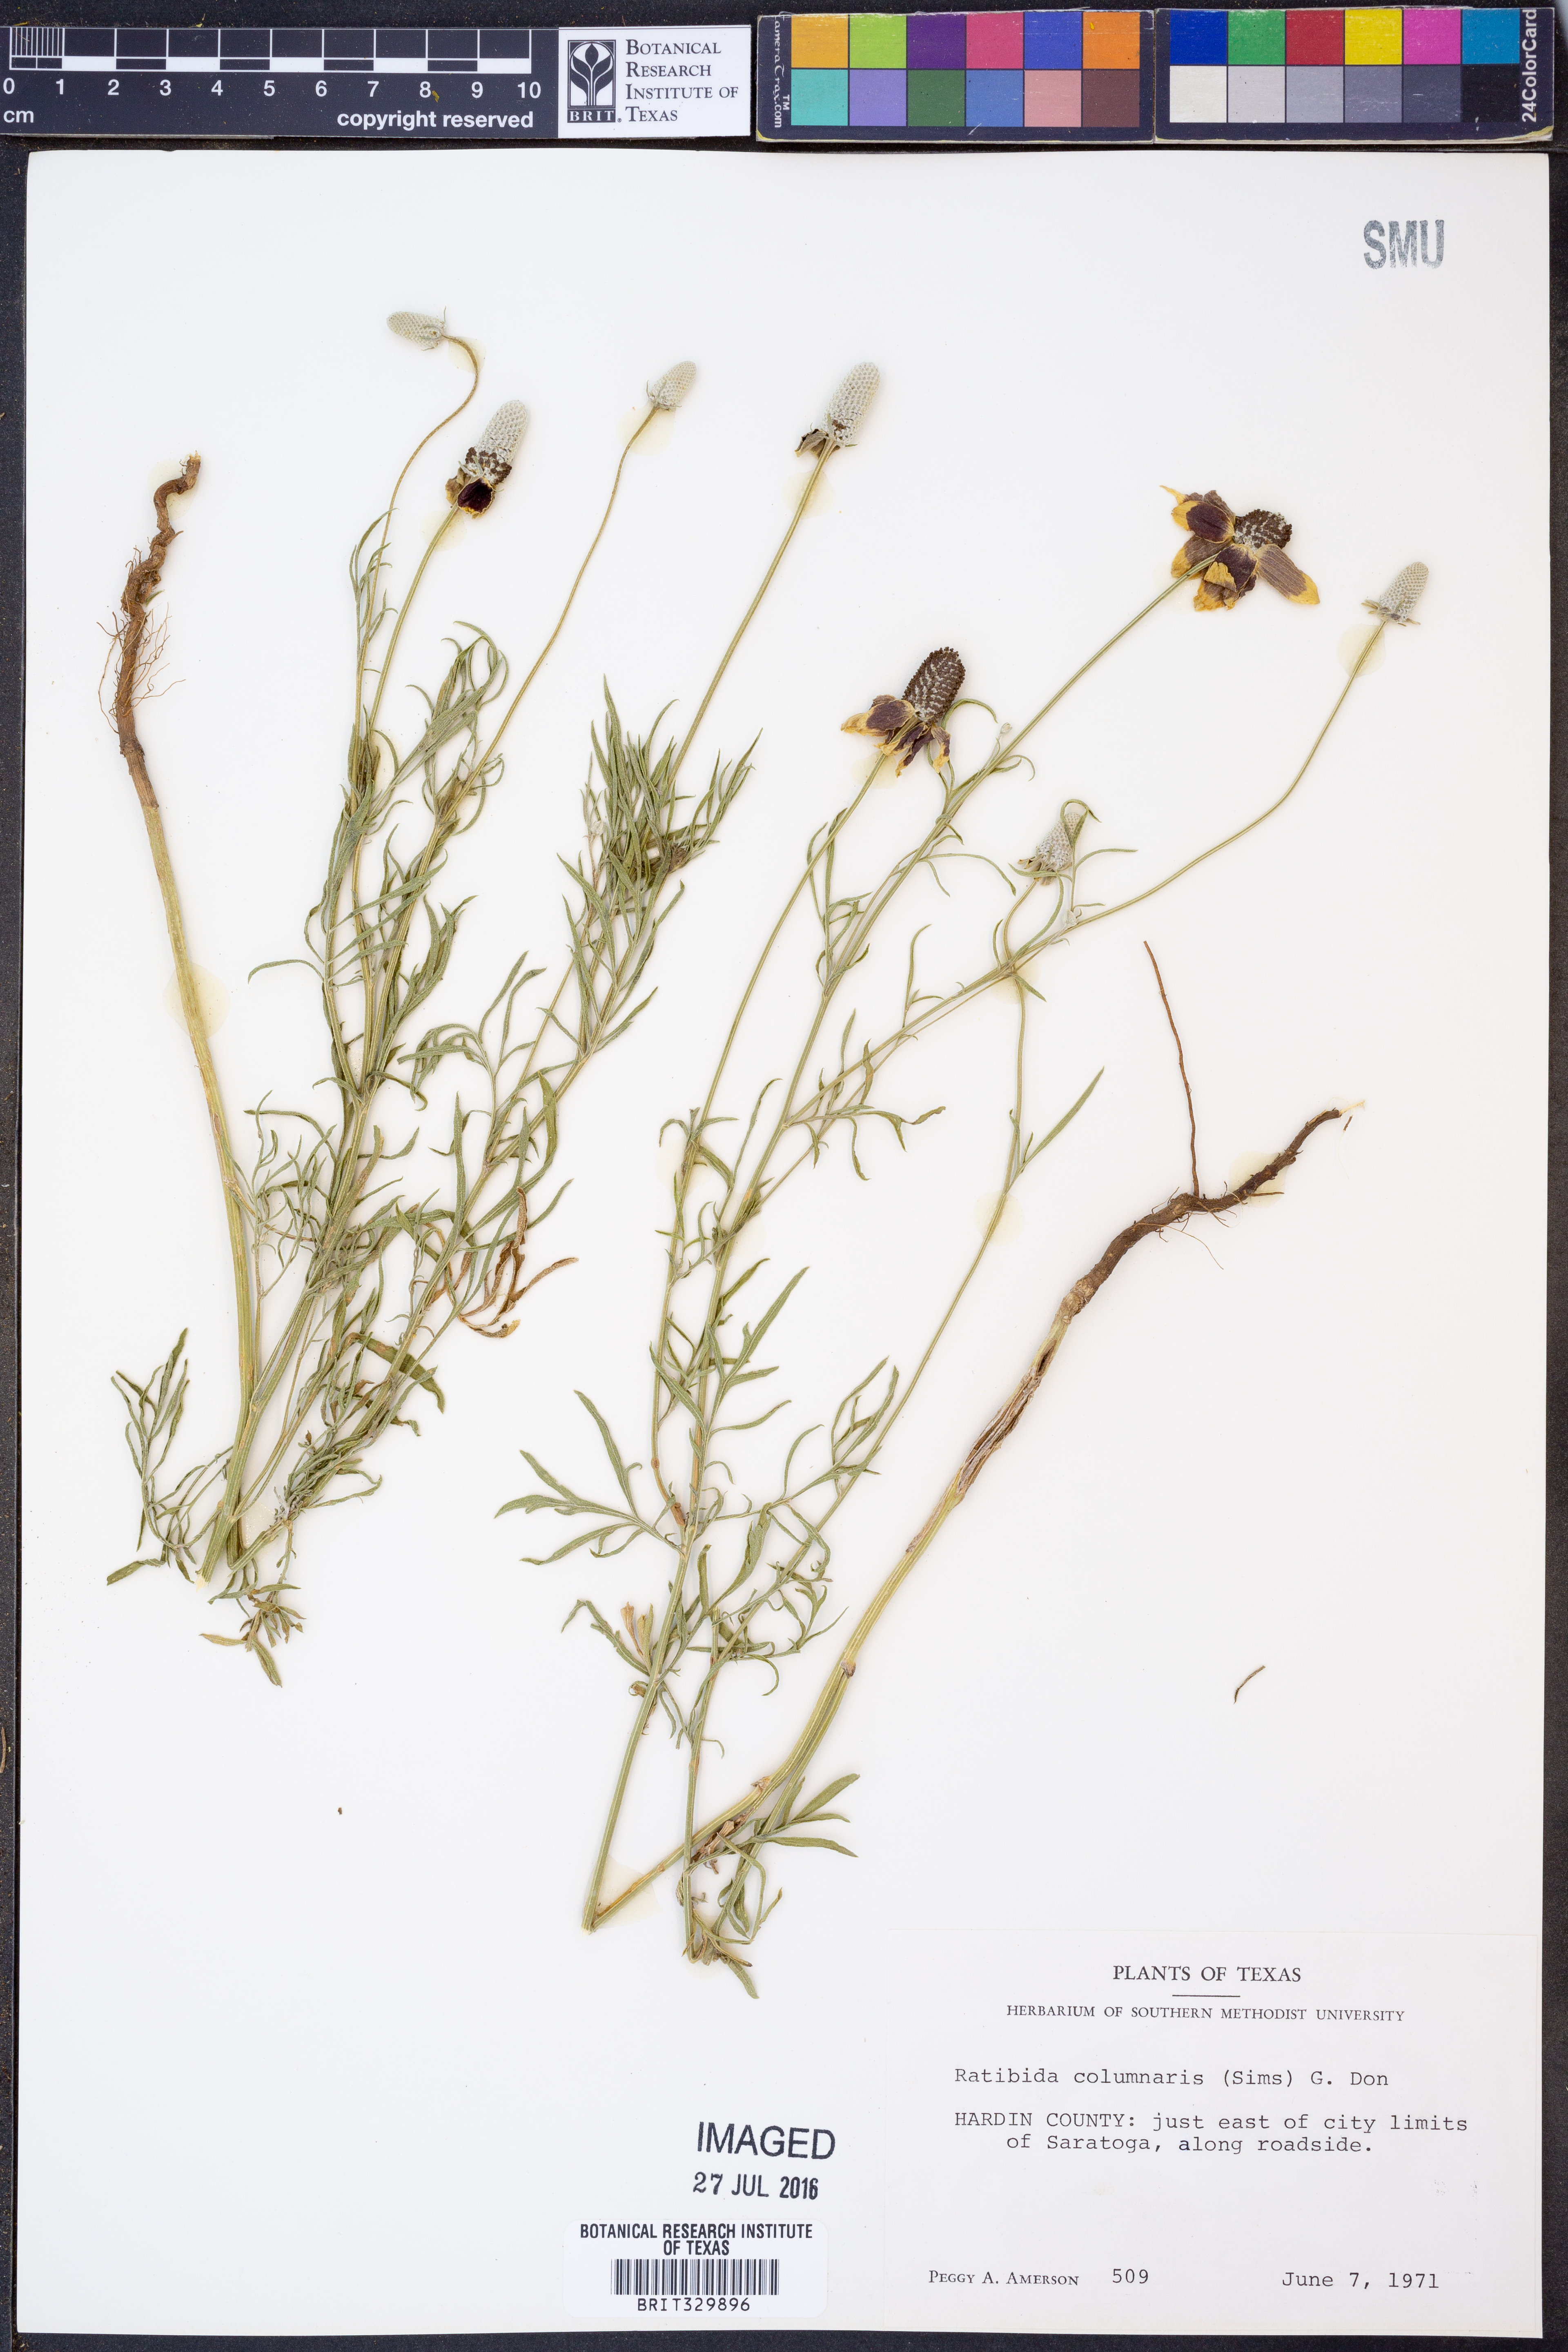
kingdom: Plantae
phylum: Tracheophyta
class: Magnoliopsida
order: Asterales
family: Asteraceae
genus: Ratibida
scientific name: Ratibida columnifera
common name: Prairie coneflower
